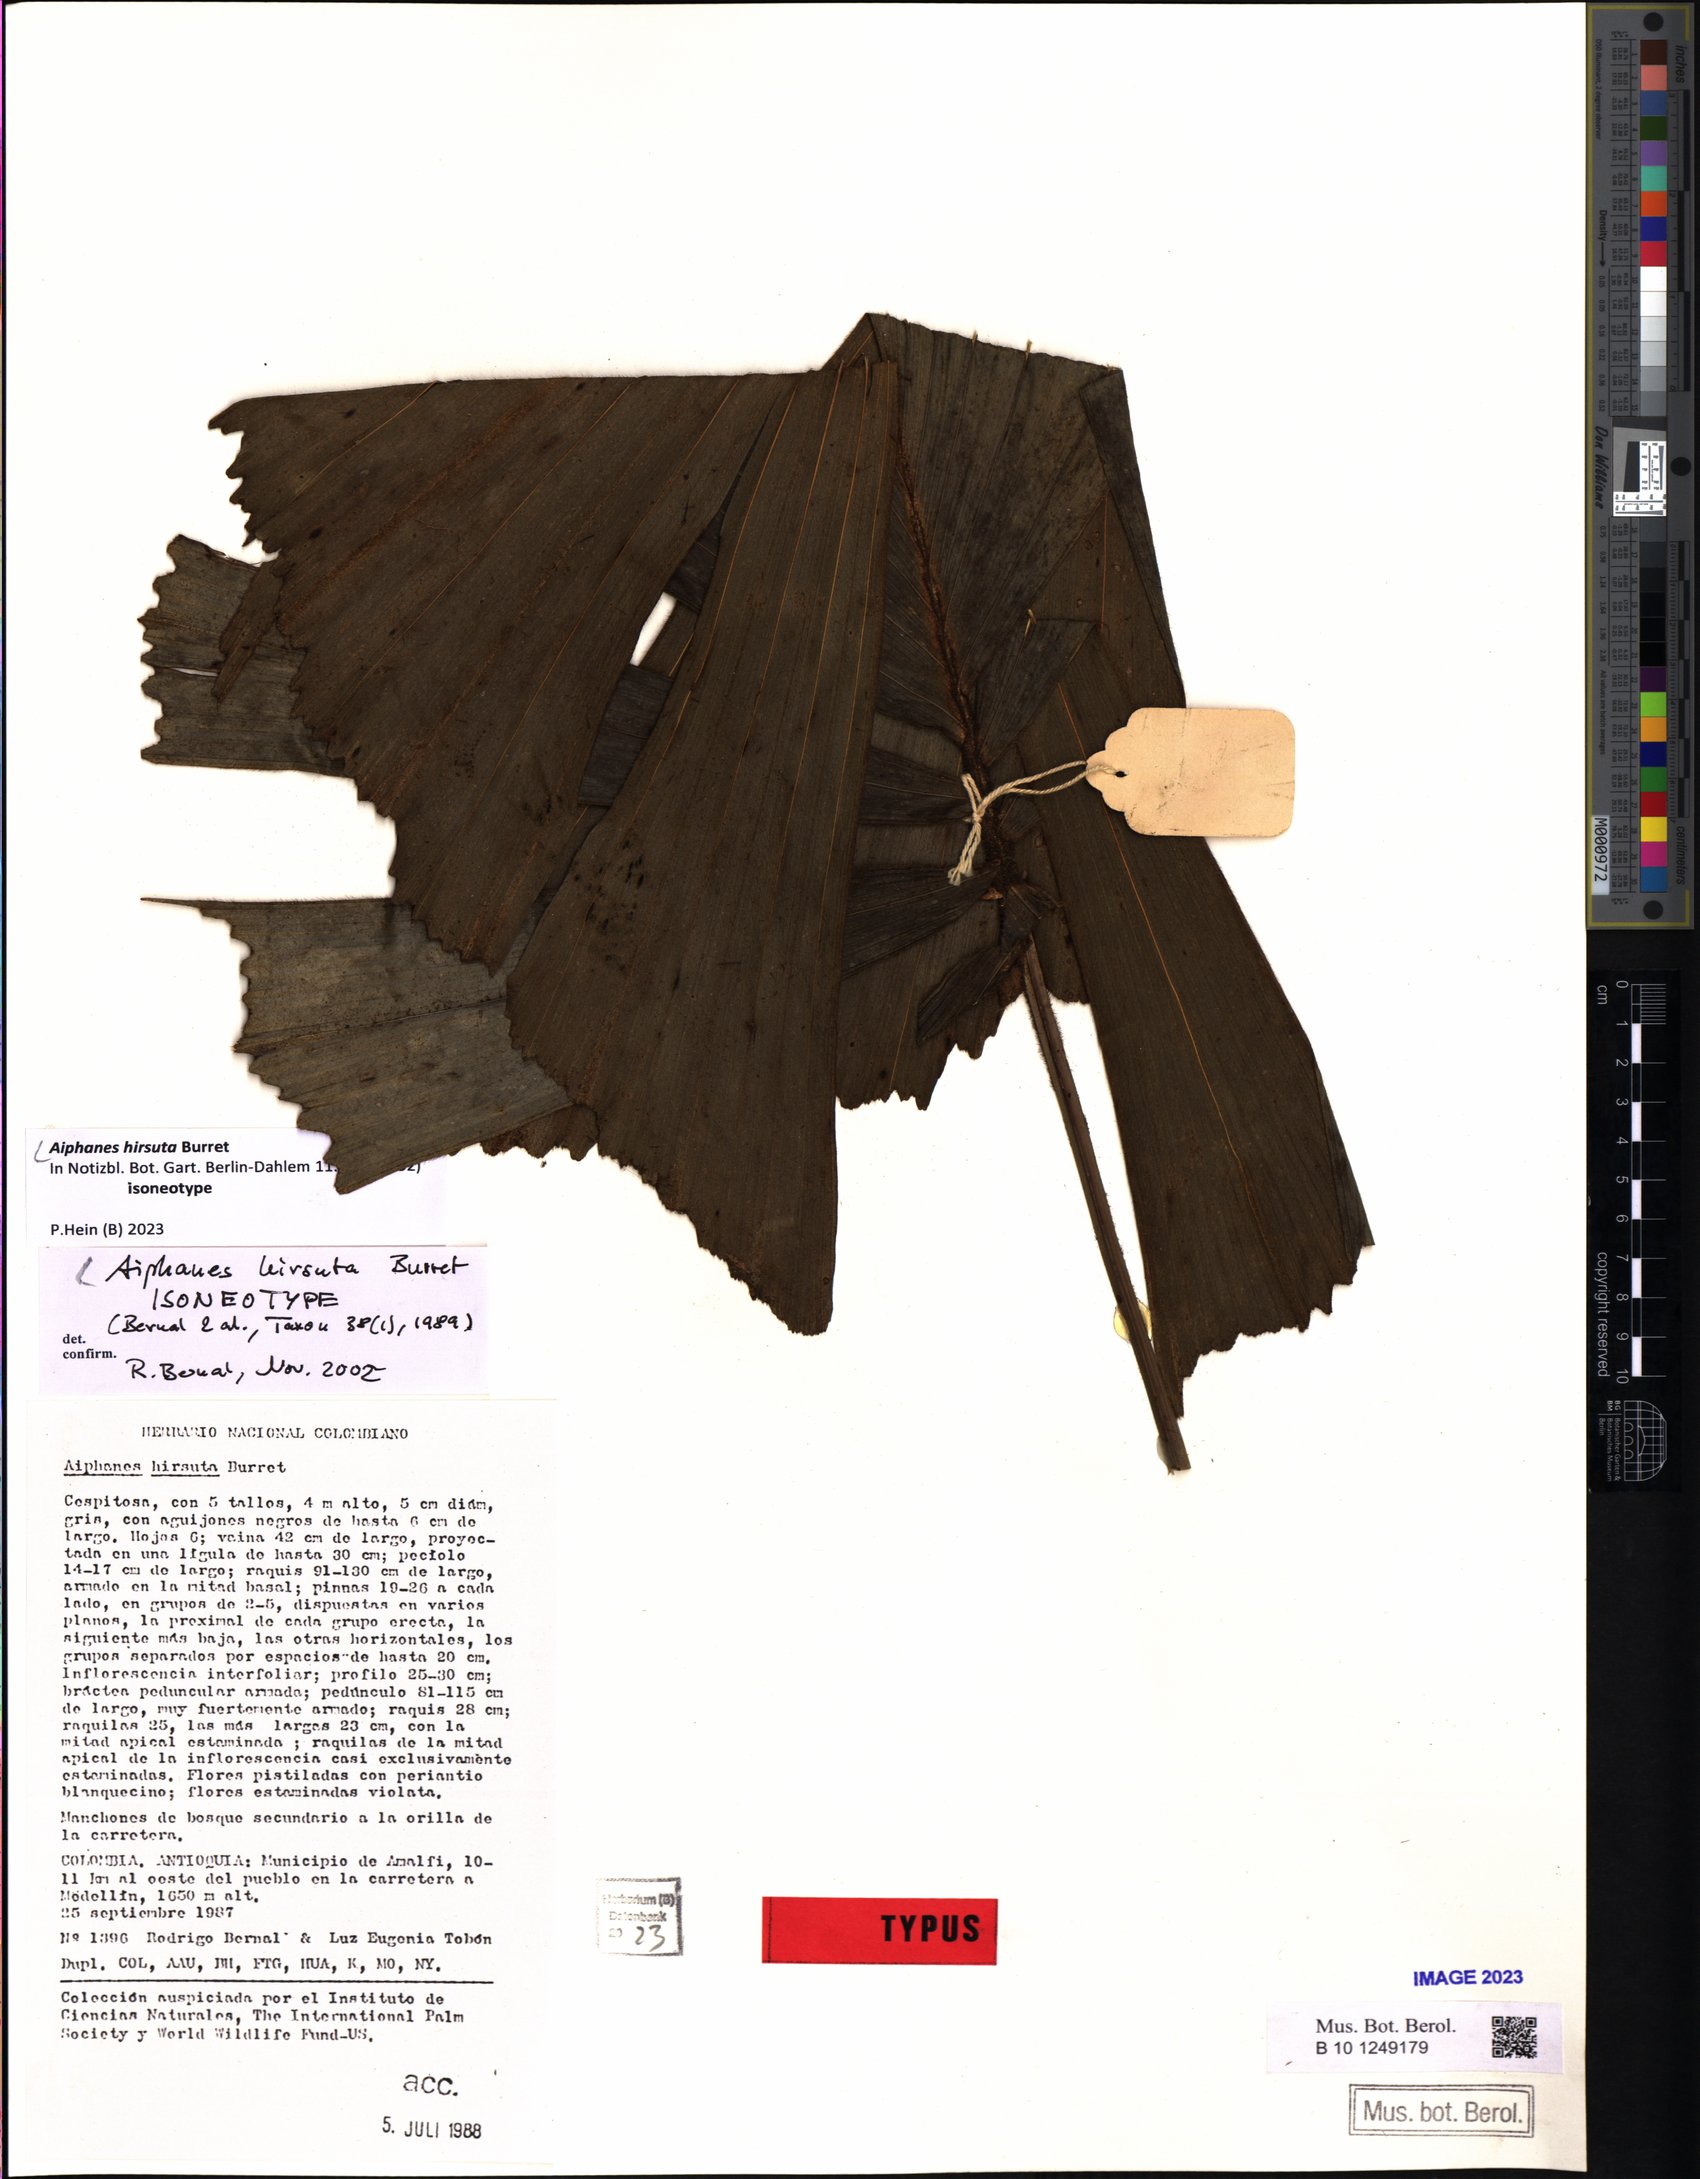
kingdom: Plantae
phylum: Tracheophyta
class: Liliopsida
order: Arecales
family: Arecaceae
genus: Aiphanes
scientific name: Aiphanes hirsuta
